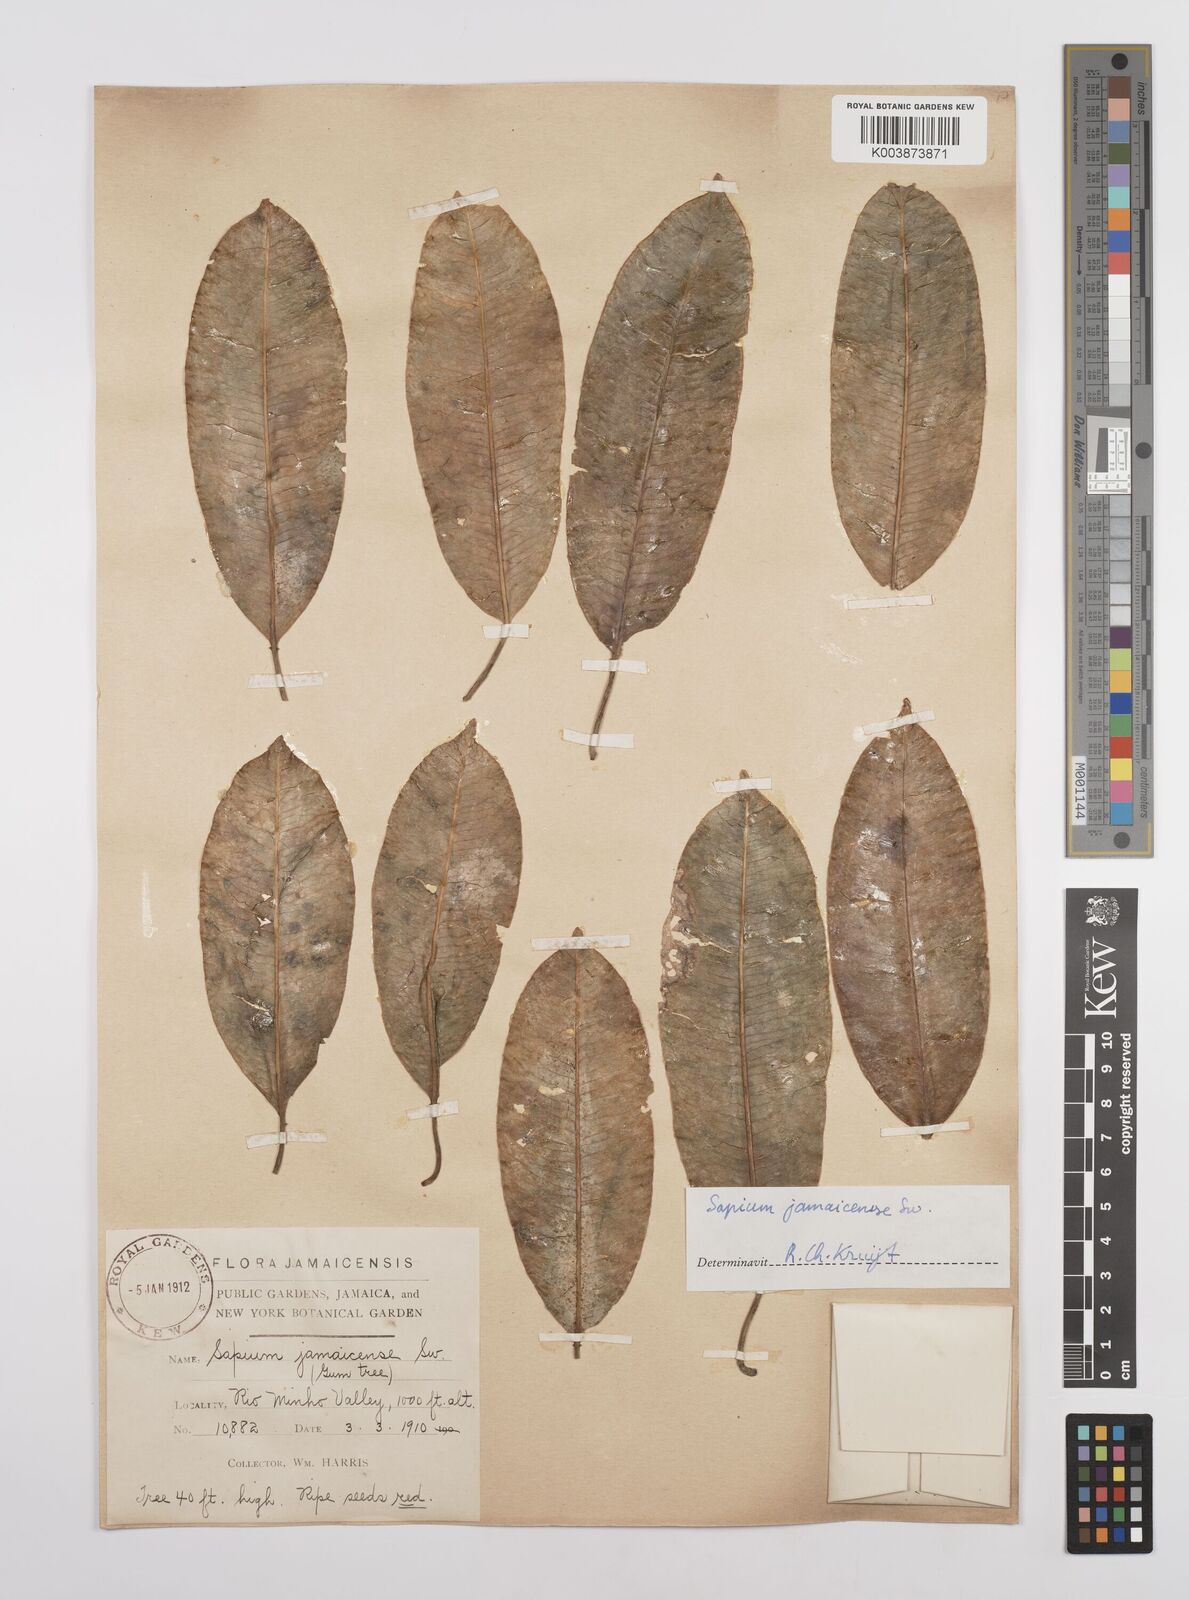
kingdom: Plantae
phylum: Tracheophyta
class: Magnoliopsida
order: Malpighiales
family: Euphorbiaceae
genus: Sapium
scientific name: Sapium glandulosum
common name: Milktree
